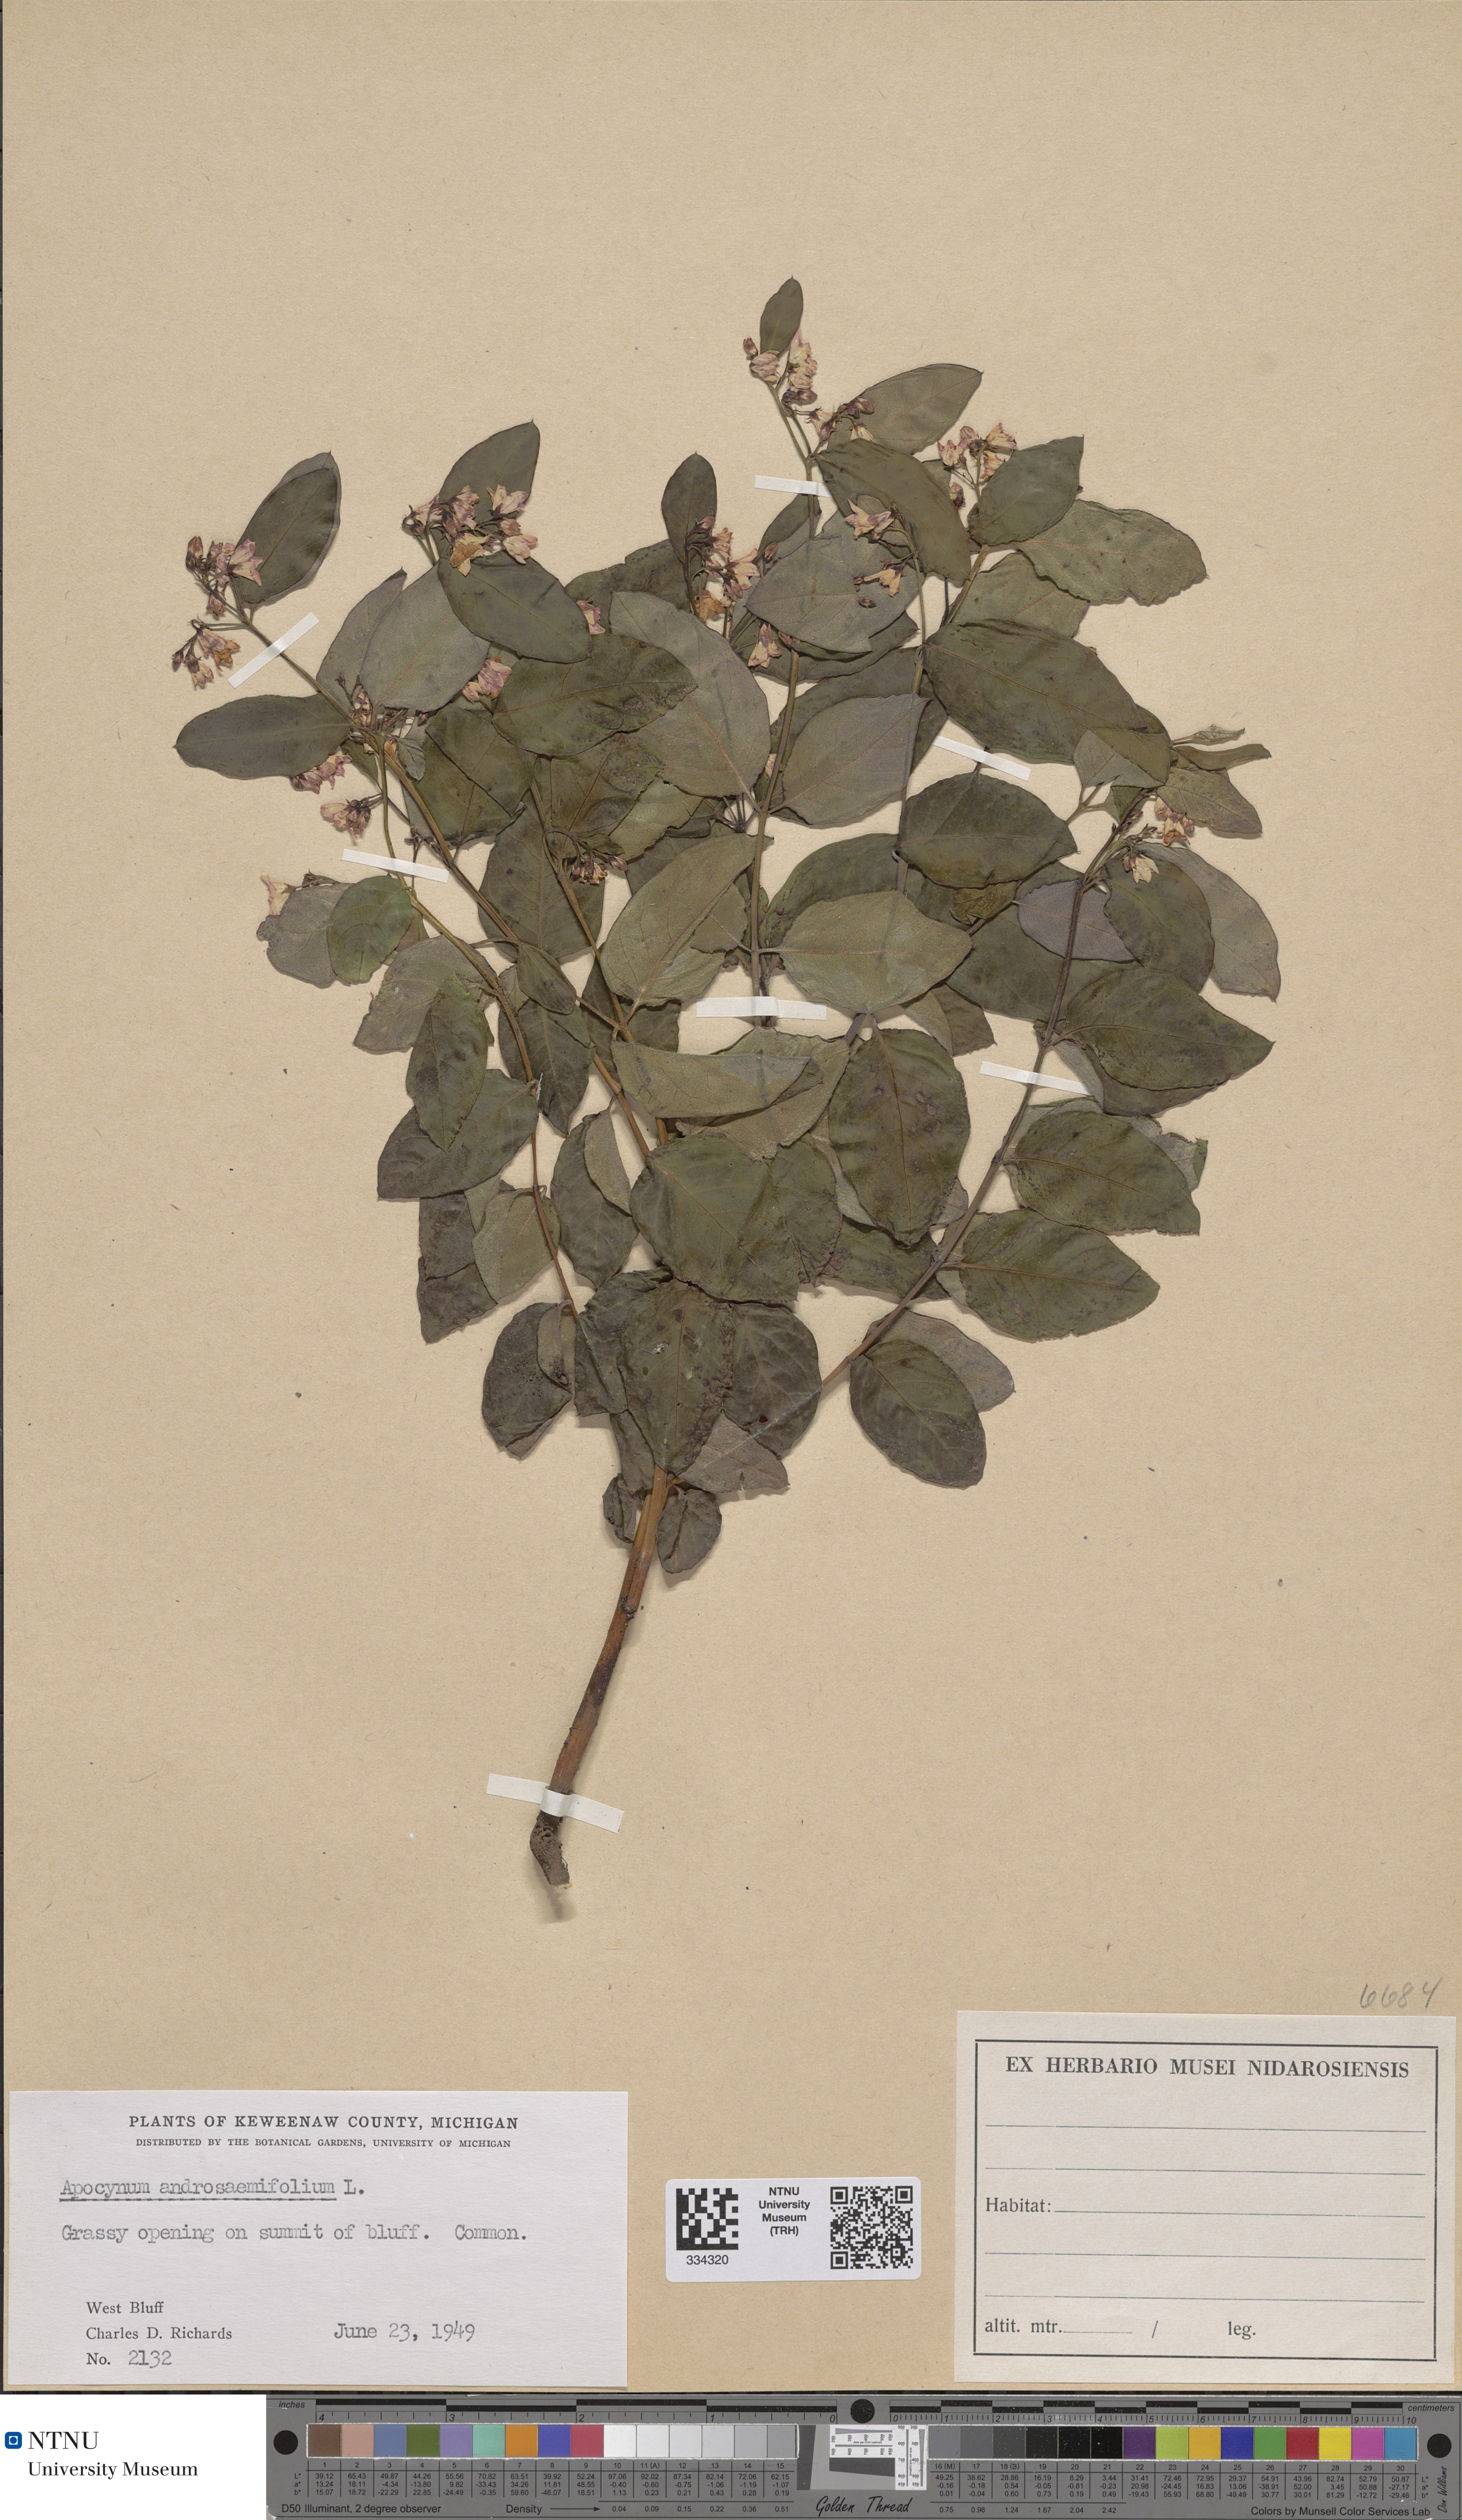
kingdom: Plantae
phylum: Tracheophyta
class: Magnoliopsida
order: Gentianales
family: Apocynaceae
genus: Apocynum
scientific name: Apocynum androsaemifolium
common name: Spreading dogbane
